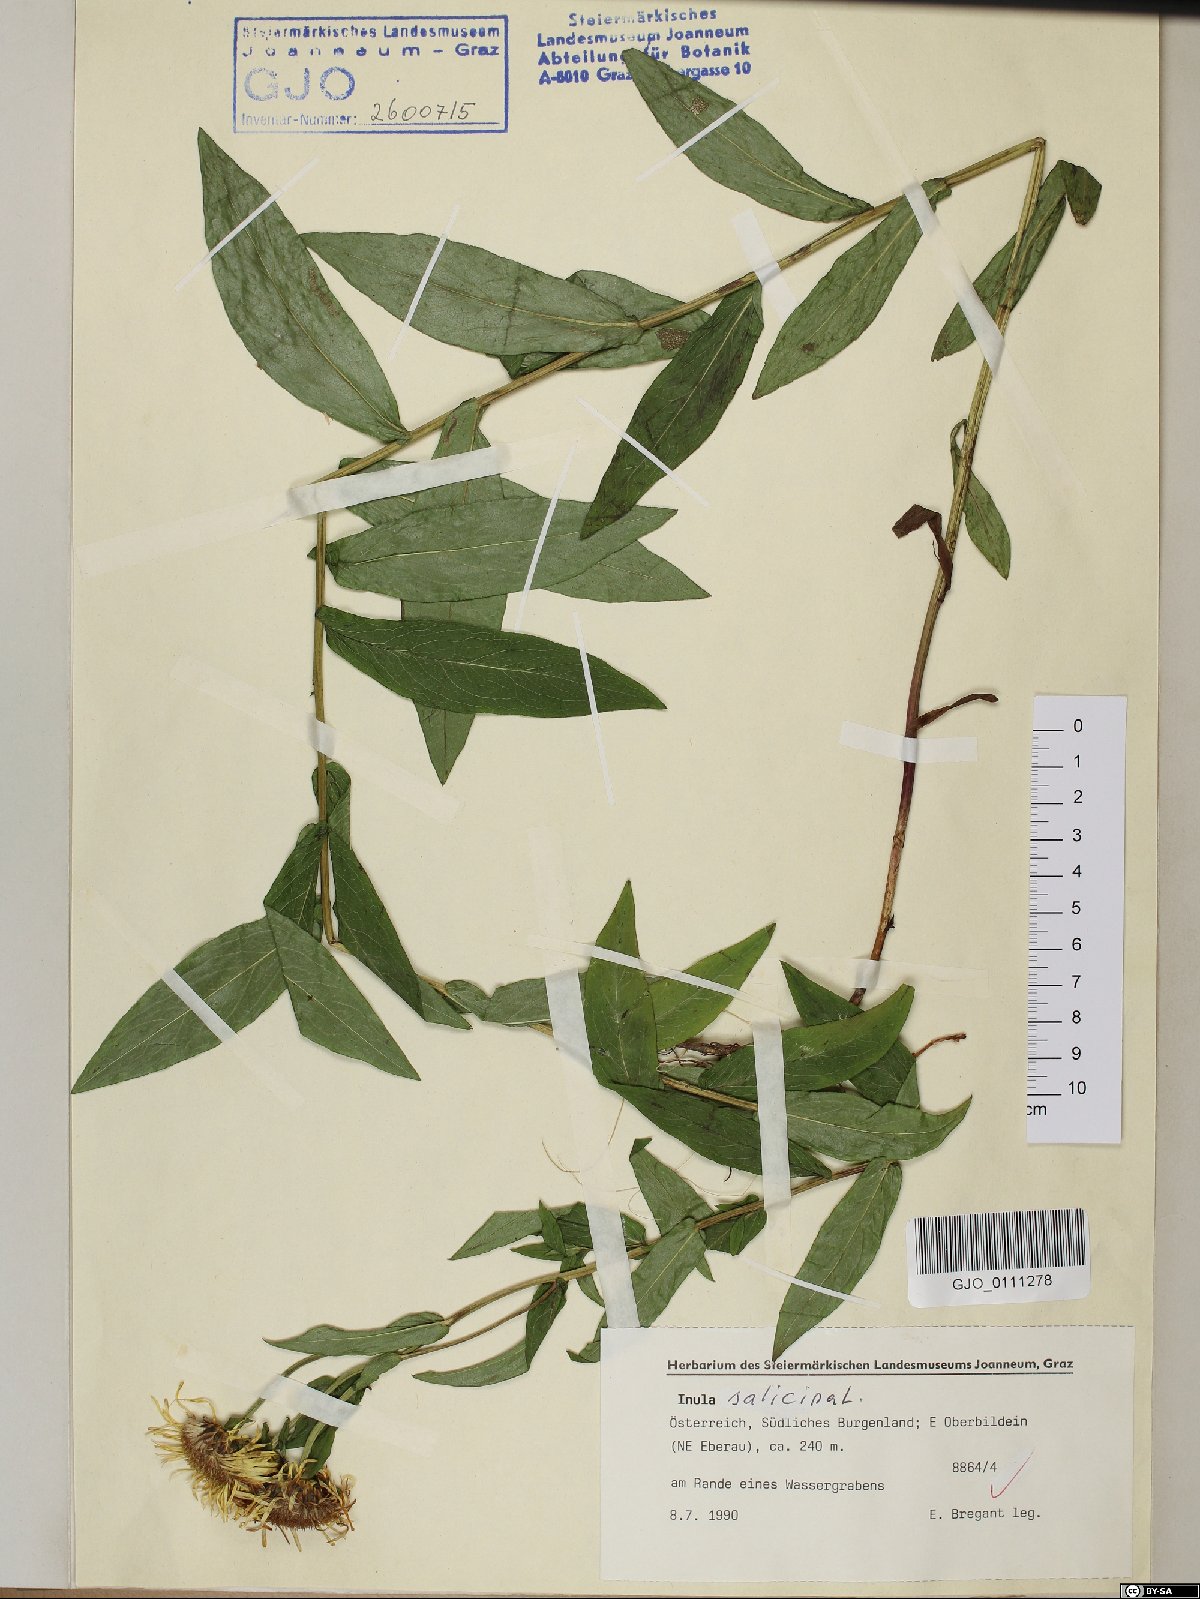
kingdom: Plantae
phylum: Tracheophyta
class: Magnoliopsida
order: Asterales
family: Asteraceae
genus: Pentanema
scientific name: Pentanema salicinum
